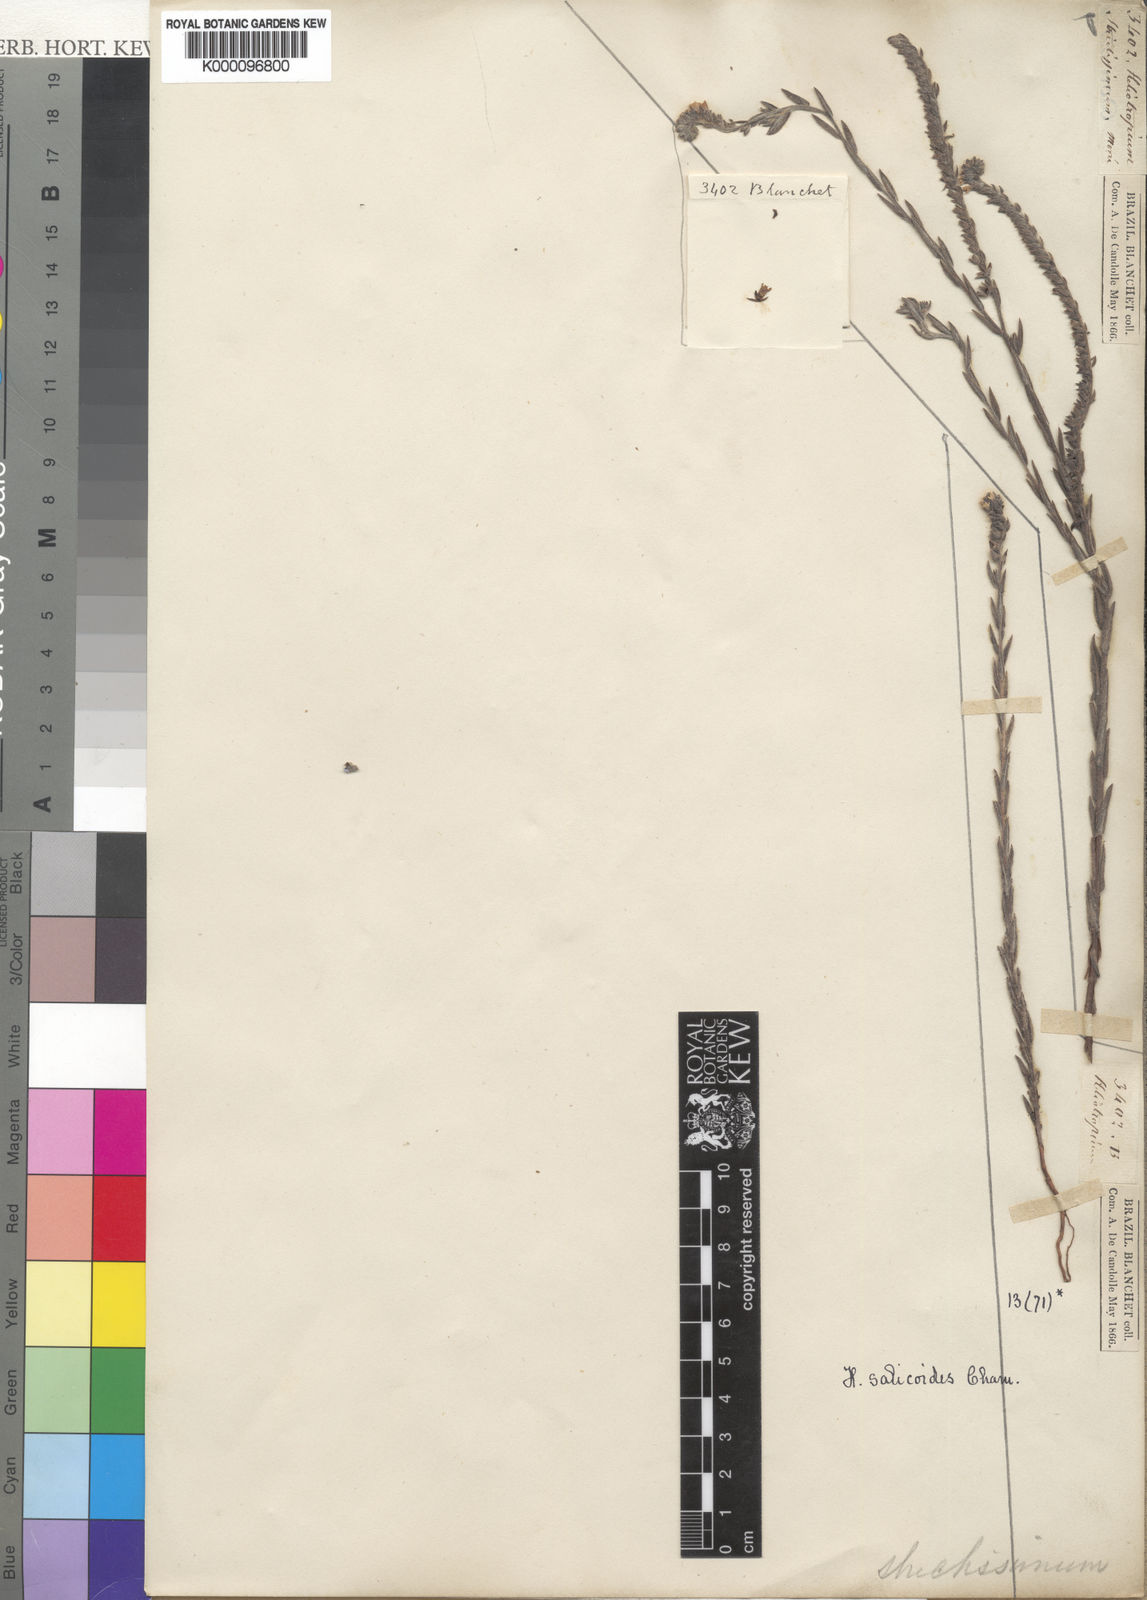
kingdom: Plantae
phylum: Tracheophyta
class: Magnoliopsida
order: Boraginales
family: Heliotropiaceae
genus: Heliotropium
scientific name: Heliotropium
